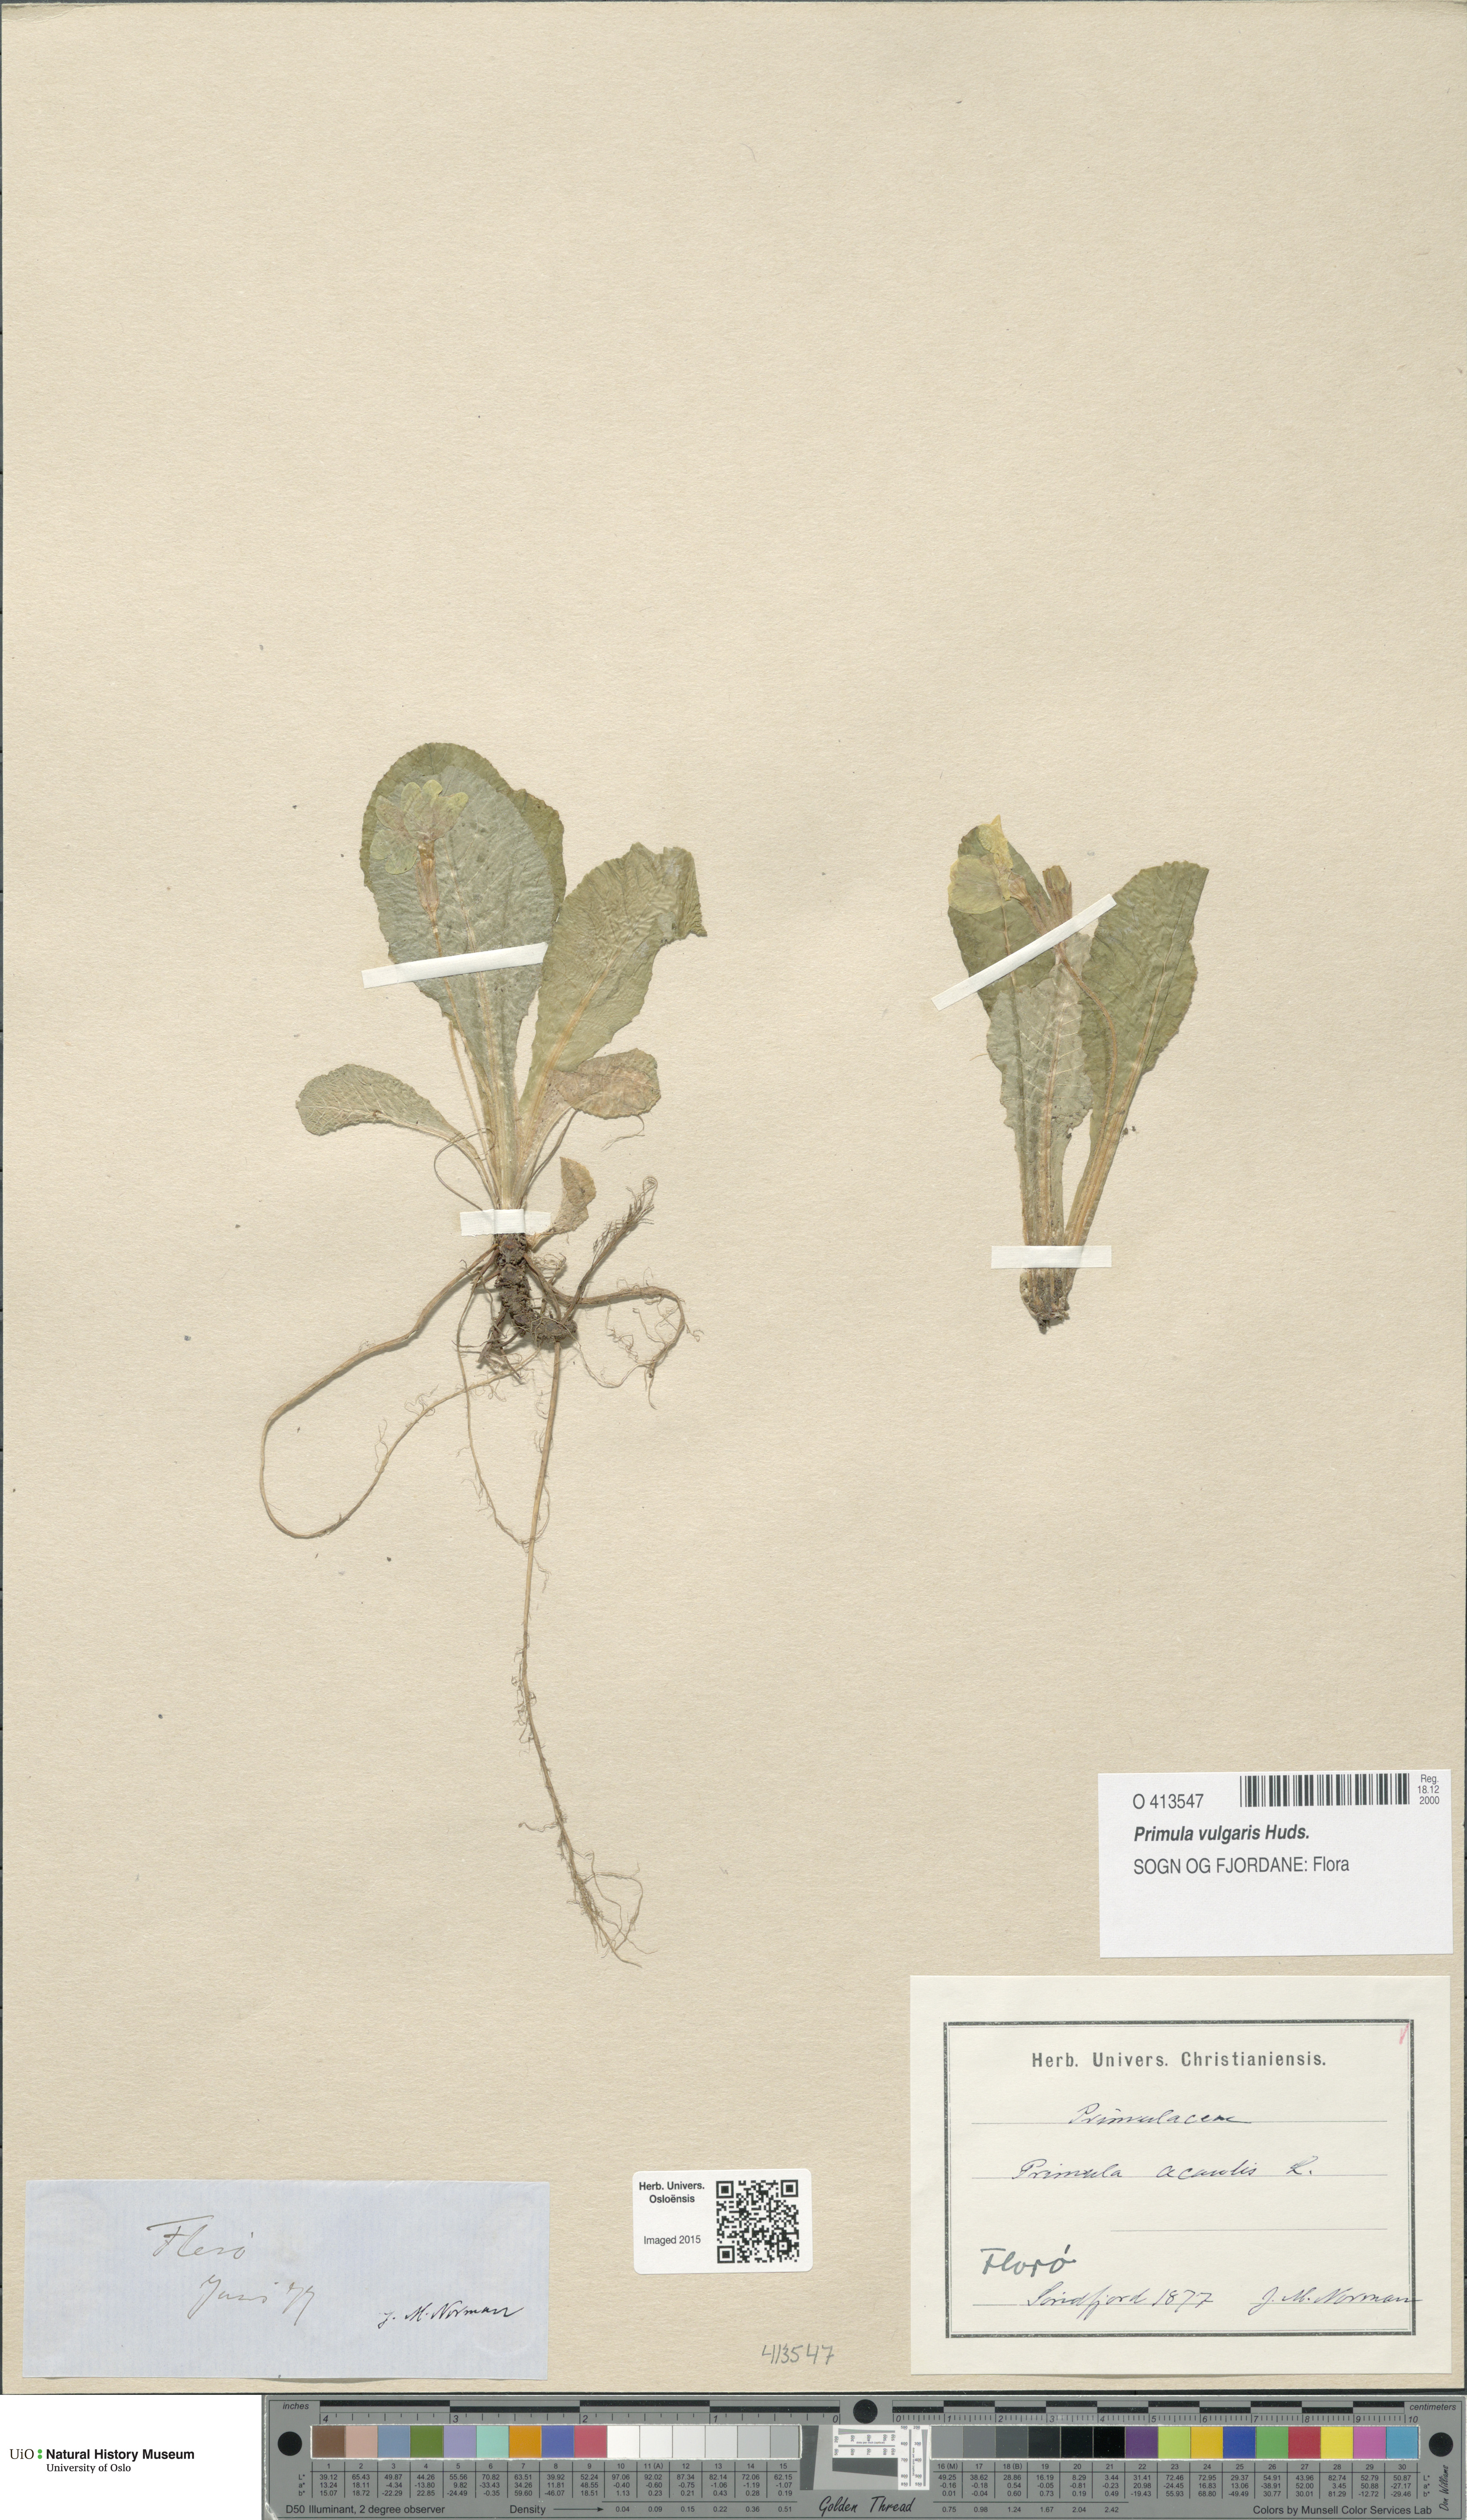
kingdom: Plantae
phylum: Tracheophyta
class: Magnoliopsida
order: Ericales
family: Primulaceae
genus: Primula
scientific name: Primula vulgaris
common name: Primrose
